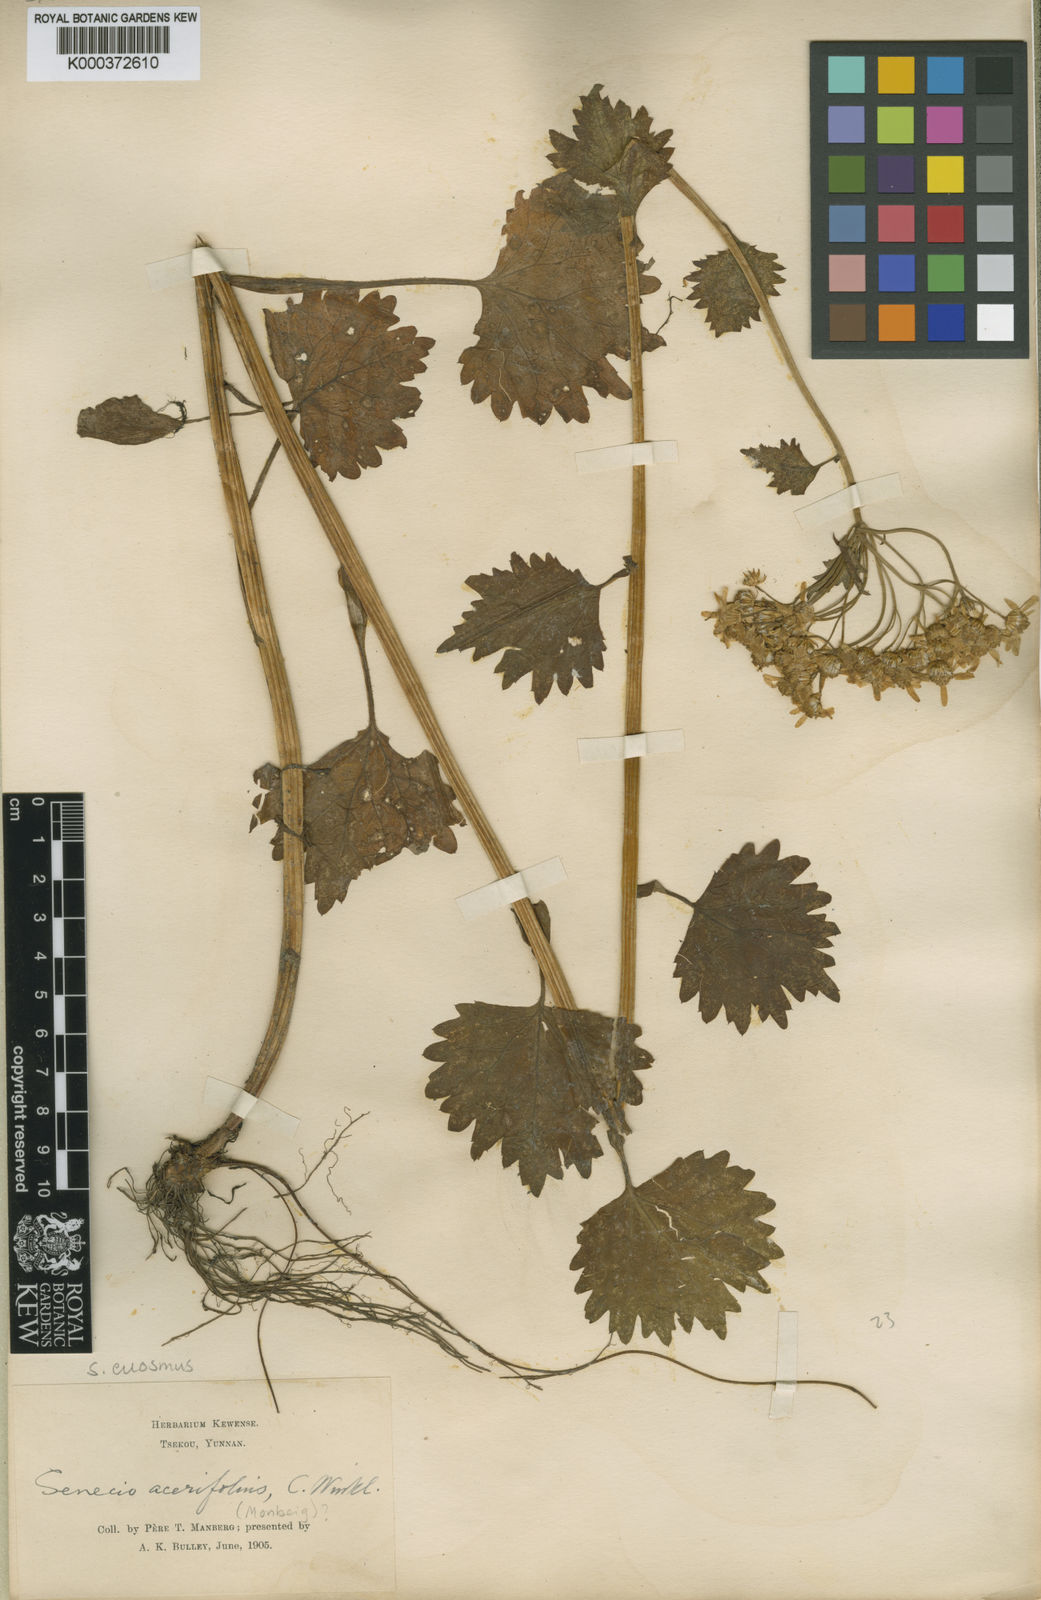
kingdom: Plantae
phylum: Tracheophyta
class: Magnoliopsida
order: Asterales
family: Asteraceae
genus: Sinosenecio
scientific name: Sinosenecio euosmus
